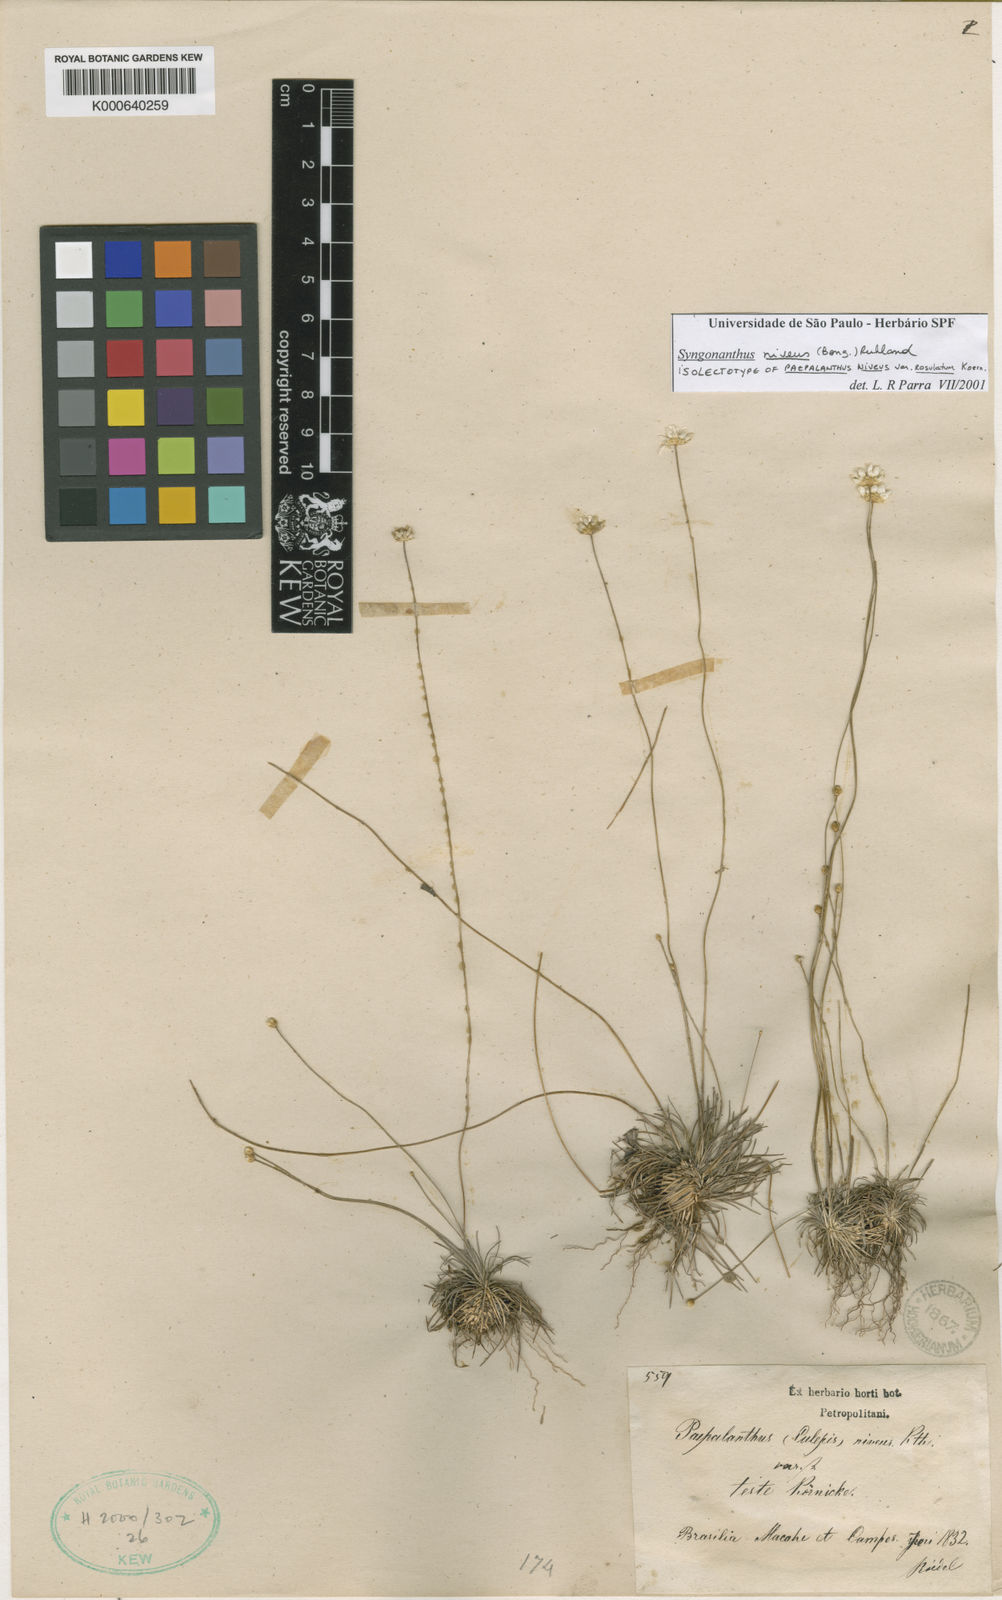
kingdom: Plantae
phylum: Tracheophyta
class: Liliopsida
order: Poales
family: Eriocaulaceae
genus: Comanthera
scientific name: Comanthera nivea
